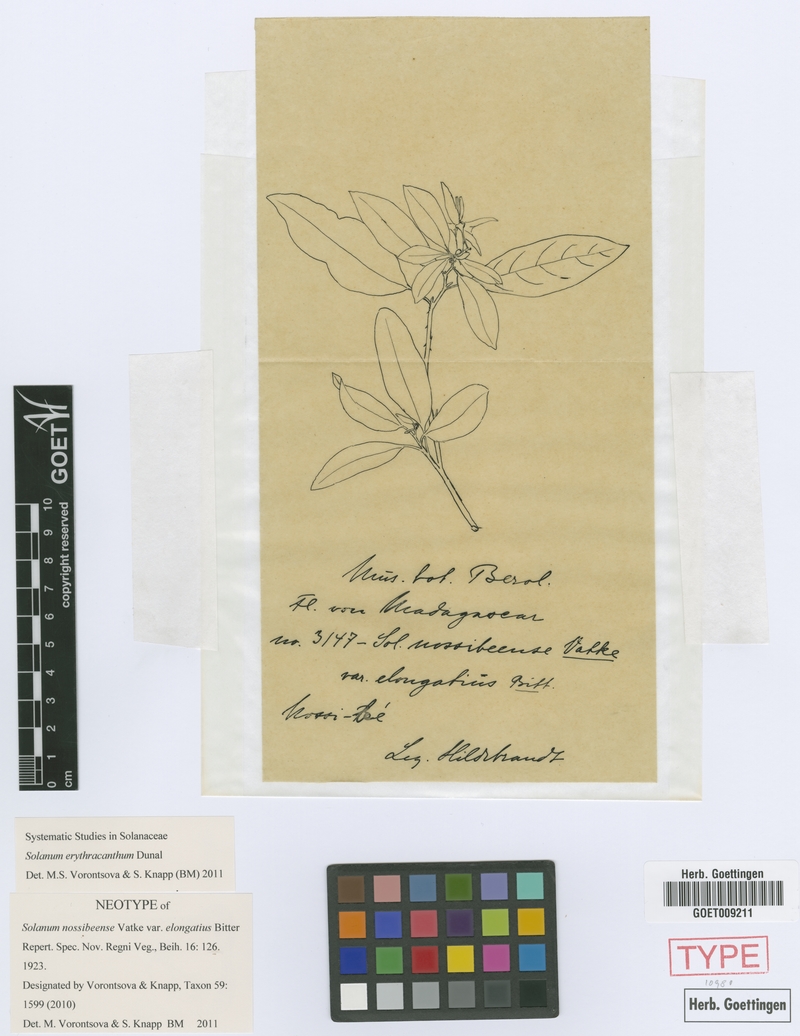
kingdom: Plantae
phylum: Tracheophyta
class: Magnoliopsida
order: Solanales
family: Solanaceae
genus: Solanum
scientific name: Solanum erythracanthum
